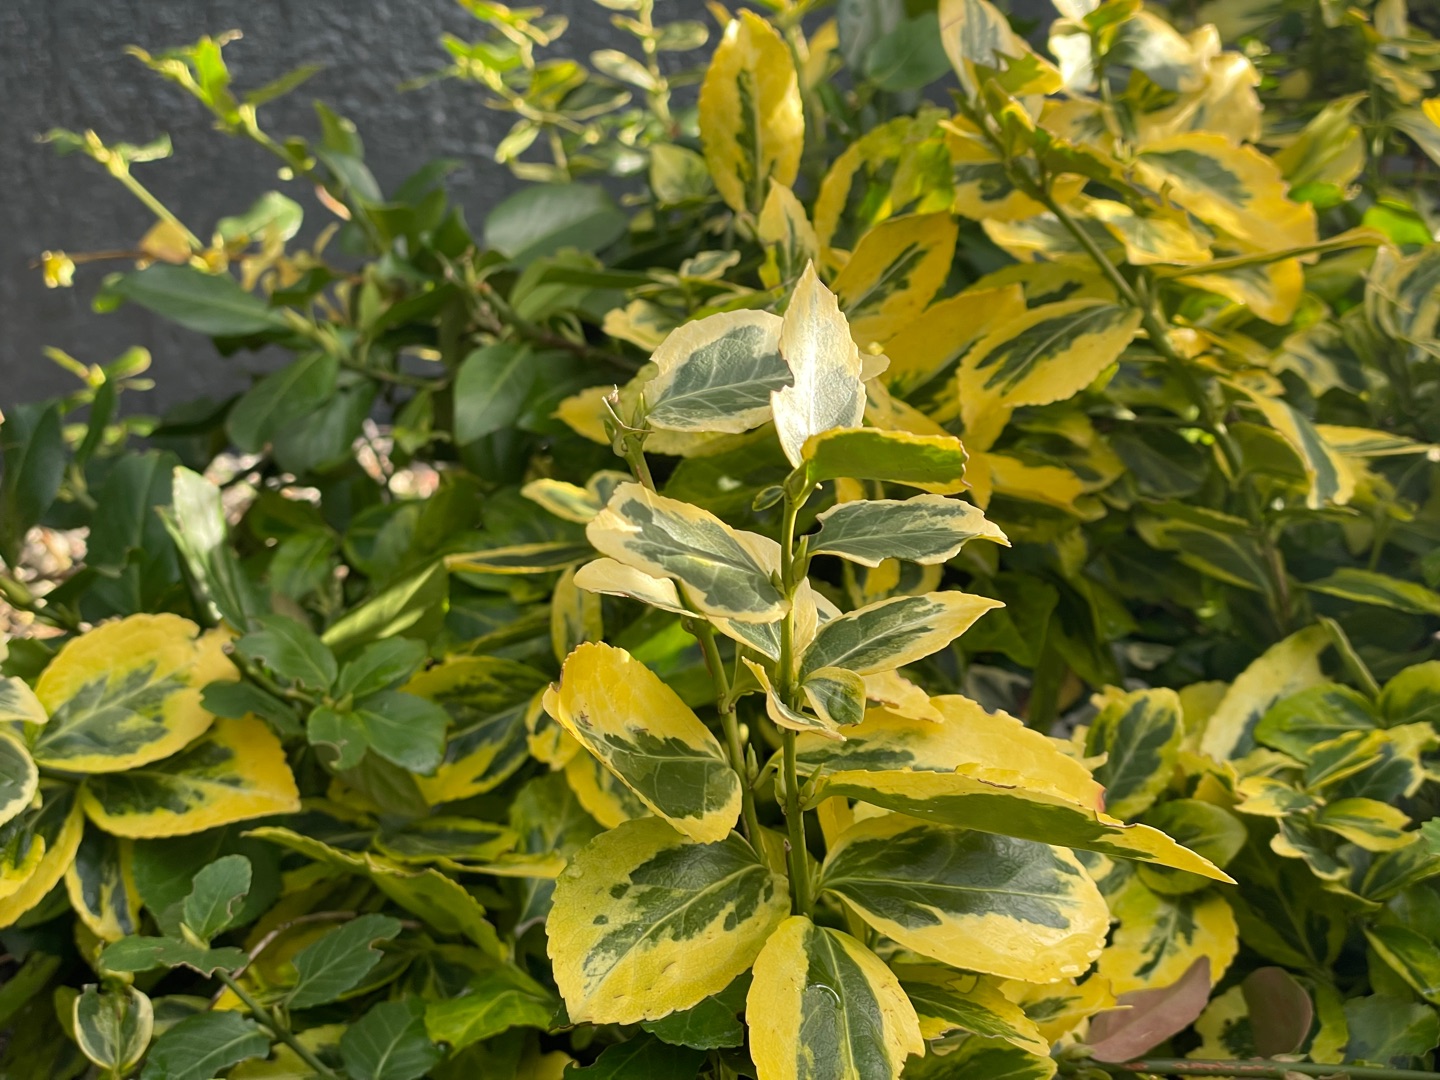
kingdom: Plantae
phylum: Tracheophyta
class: Magnoliopsida
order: Celastrales
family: Celastraceae
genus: Euonymus
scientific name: Euonymus japonicus
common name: Japansk benved
